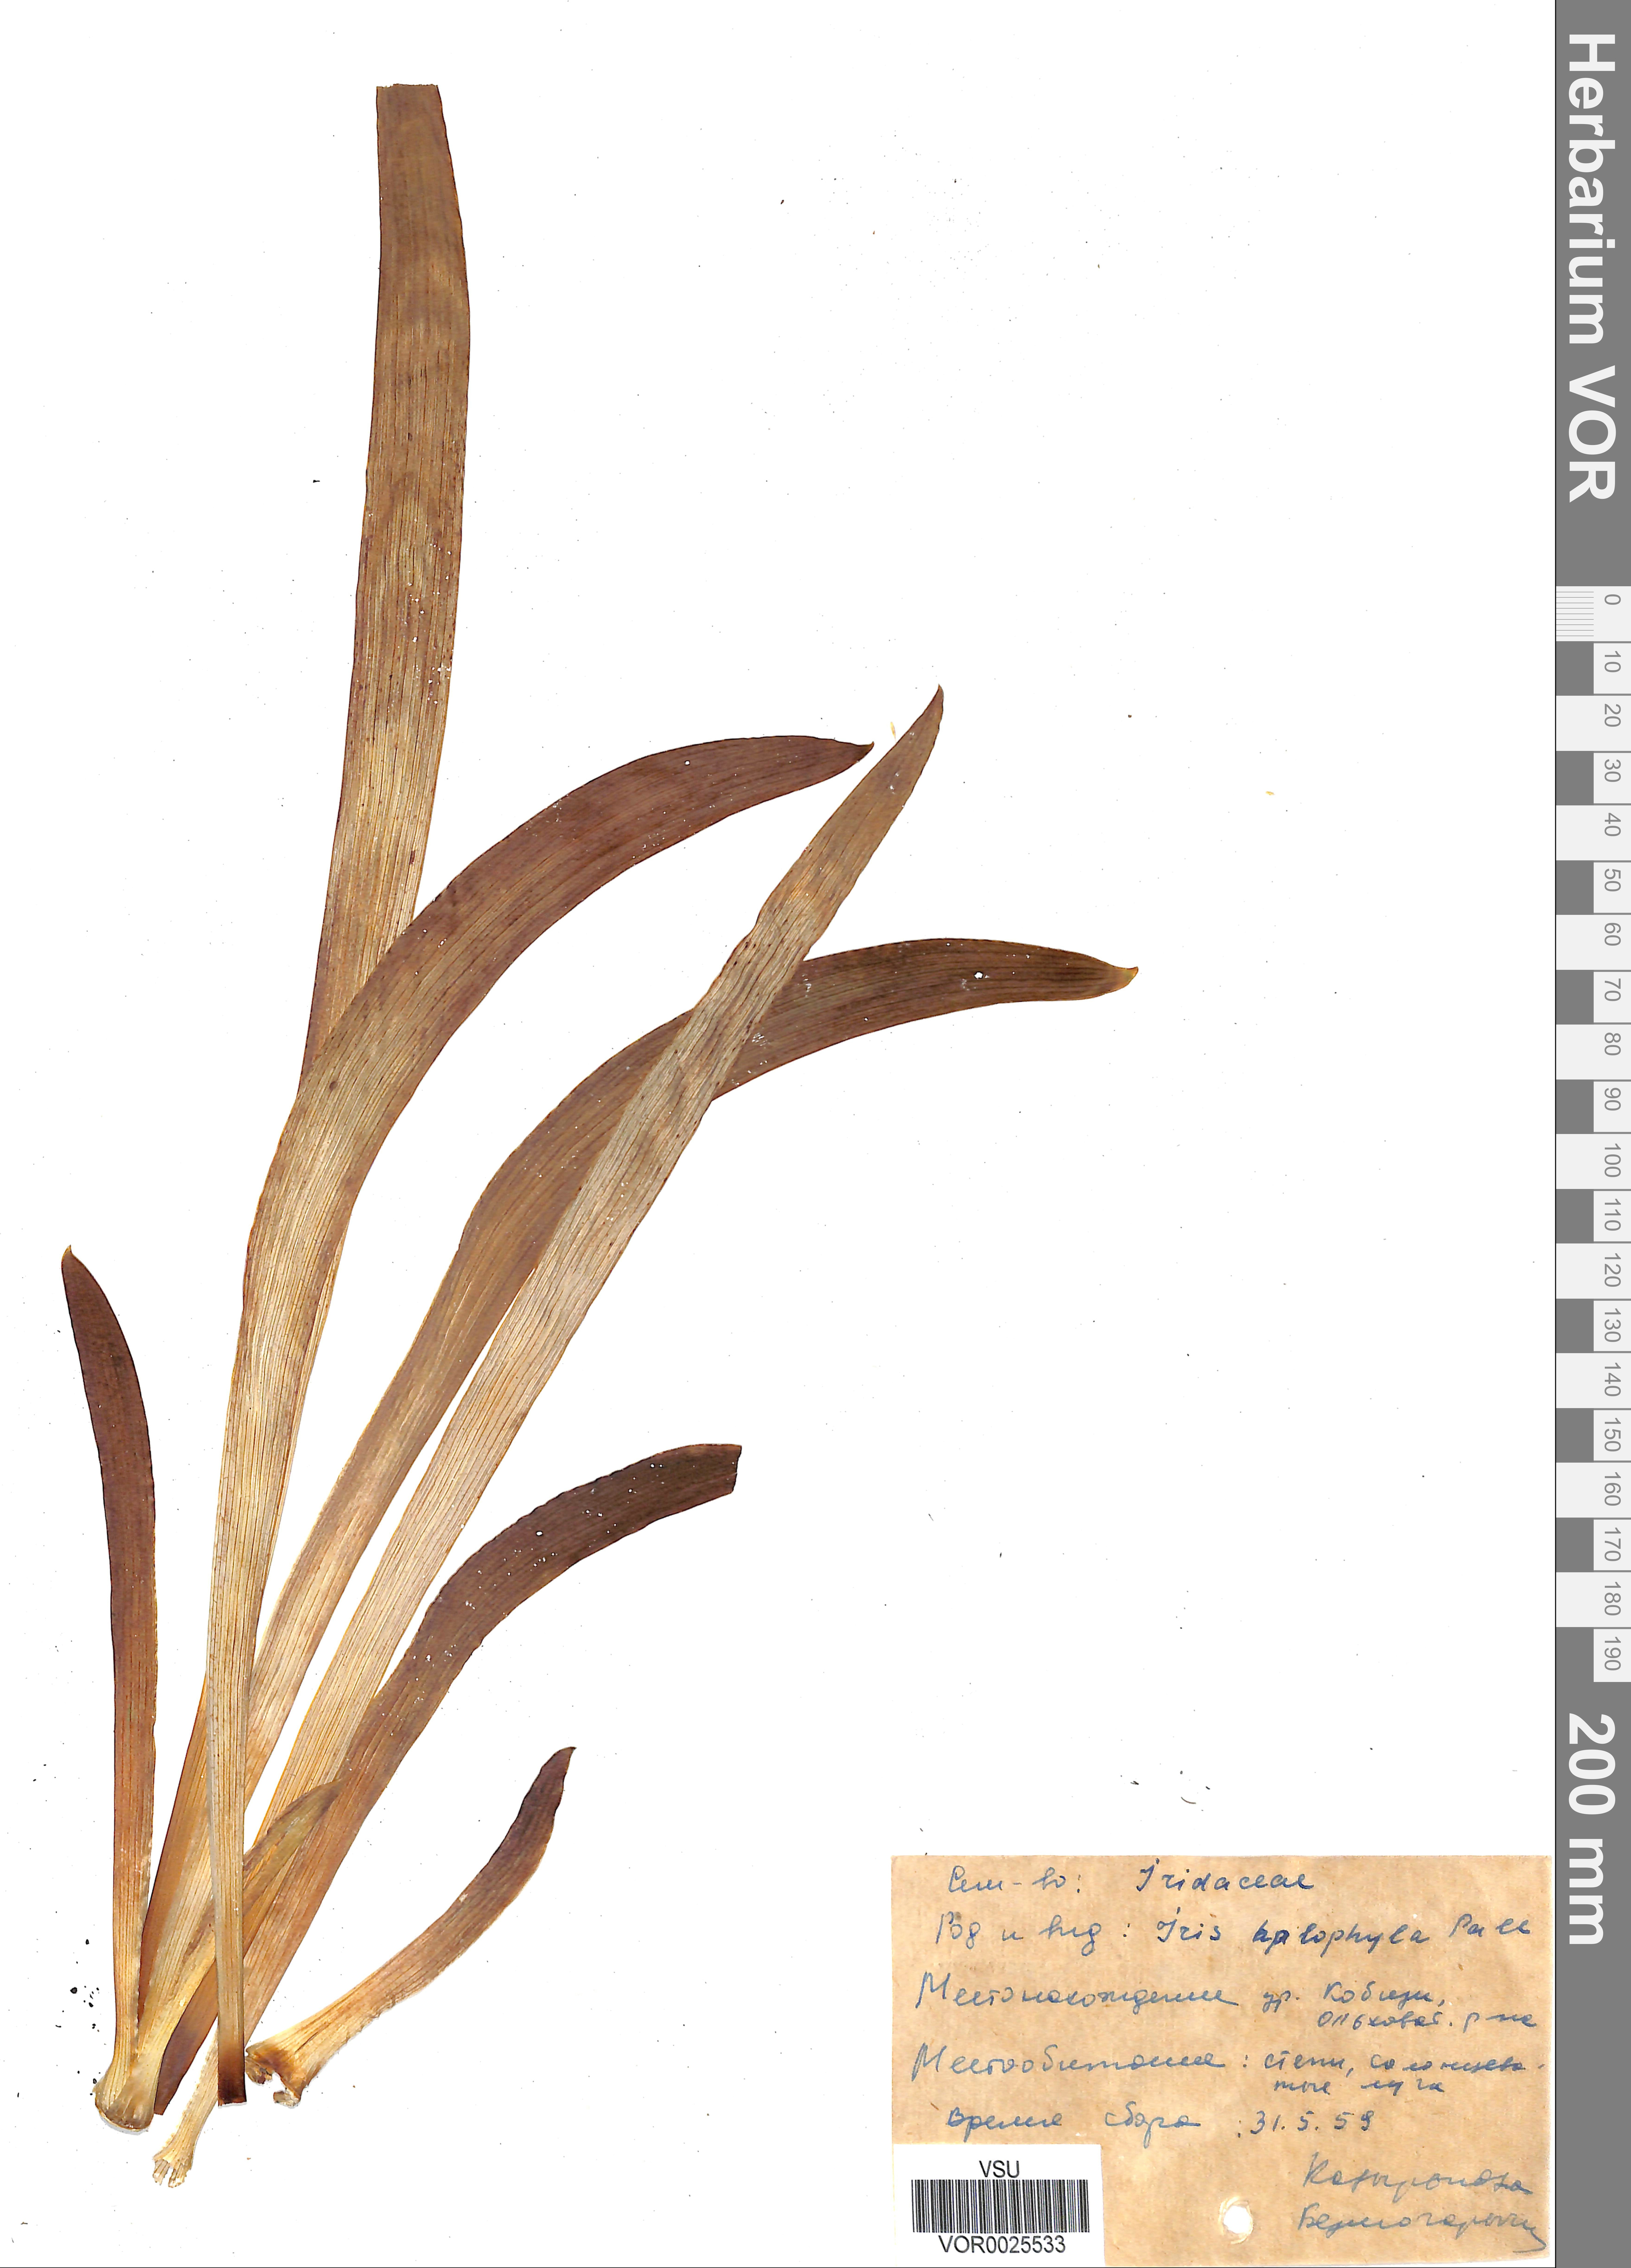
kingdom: Plantae
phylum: Tracheophyta
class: Liliopsida
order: Asparagales
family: Iridaceae
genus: Iris
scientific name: Iris halophila
